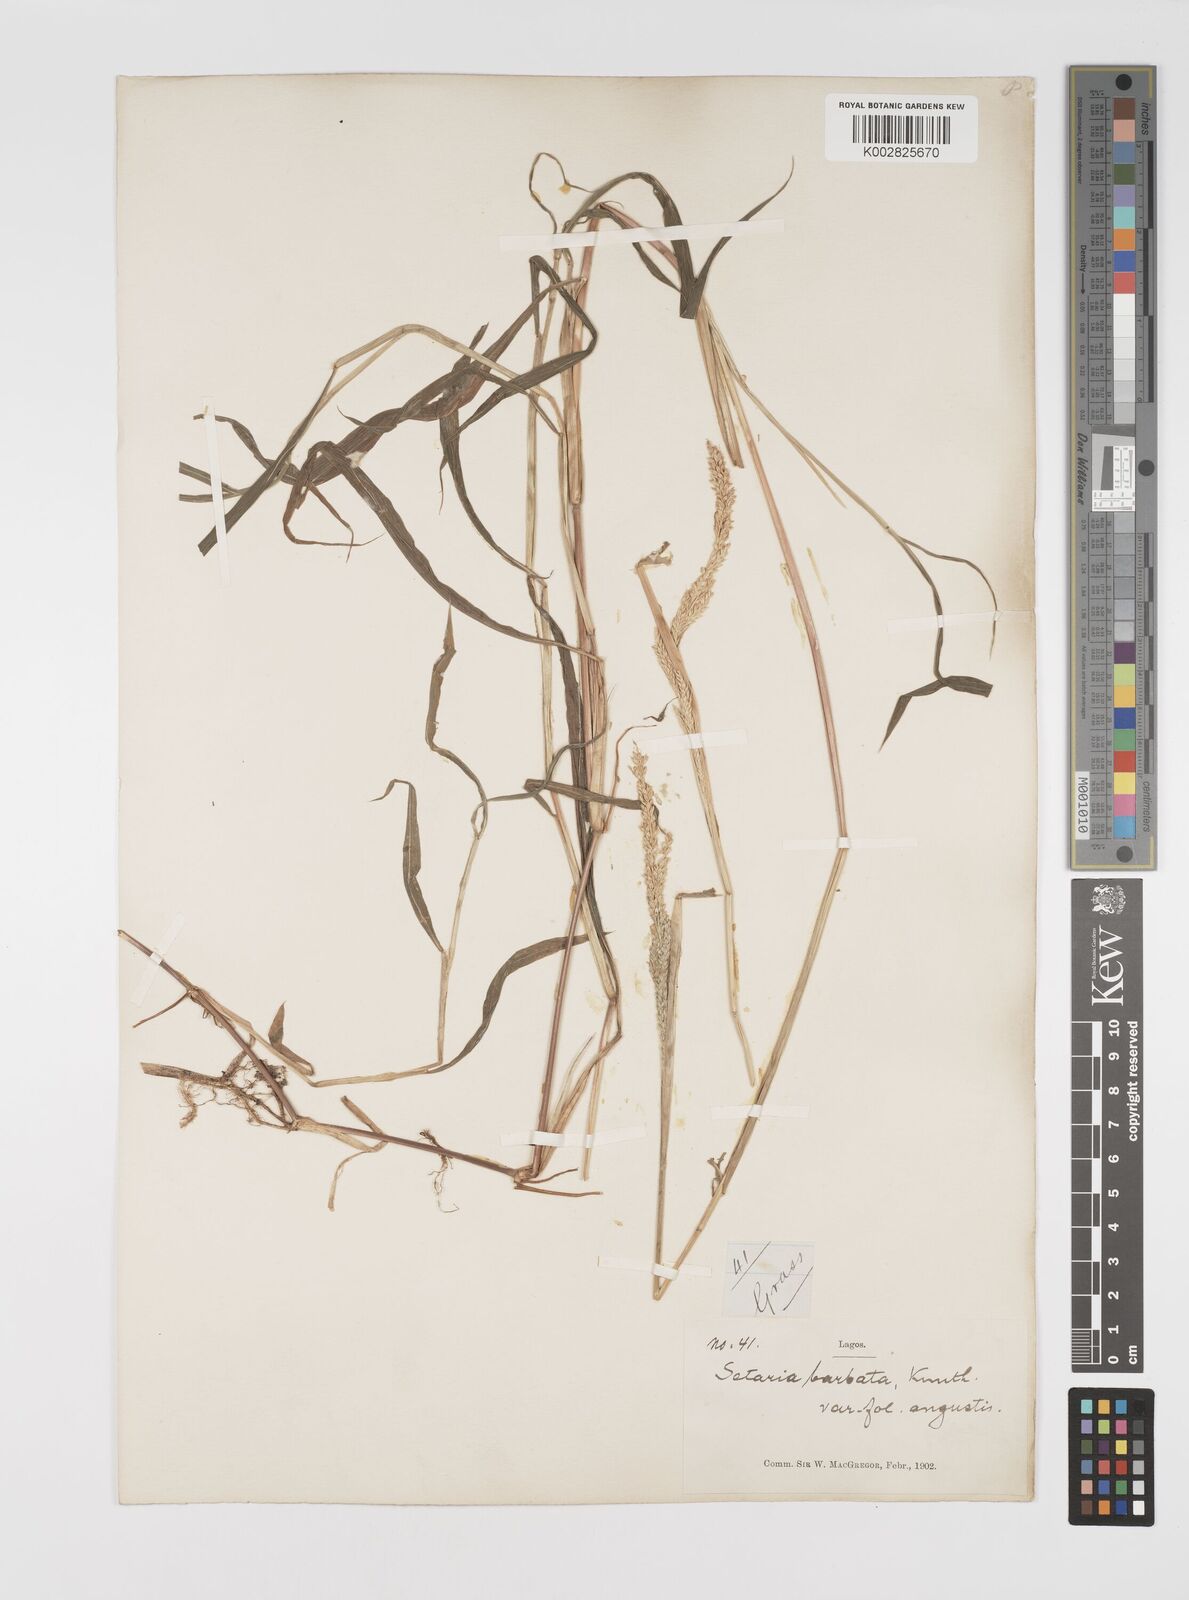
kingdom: Plantae
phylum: Tracheophyta
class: Liliopsida
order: Poales
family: Poaceae
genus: Setaria
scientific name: Setaria barbata
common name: East indian bristlegrass
